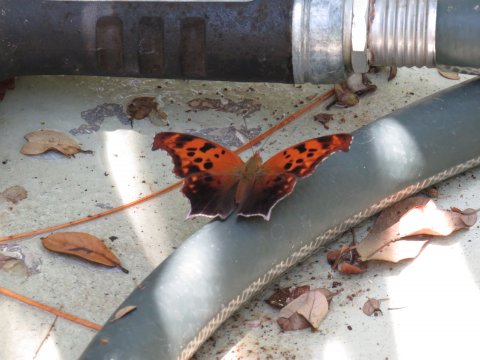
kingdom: Animalia
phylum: Arthropoda
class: Insecta
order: Lepidoptera
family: Nymphalidae
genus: Polygonia
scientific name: Polygonia interrogationis
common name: Question Mark
